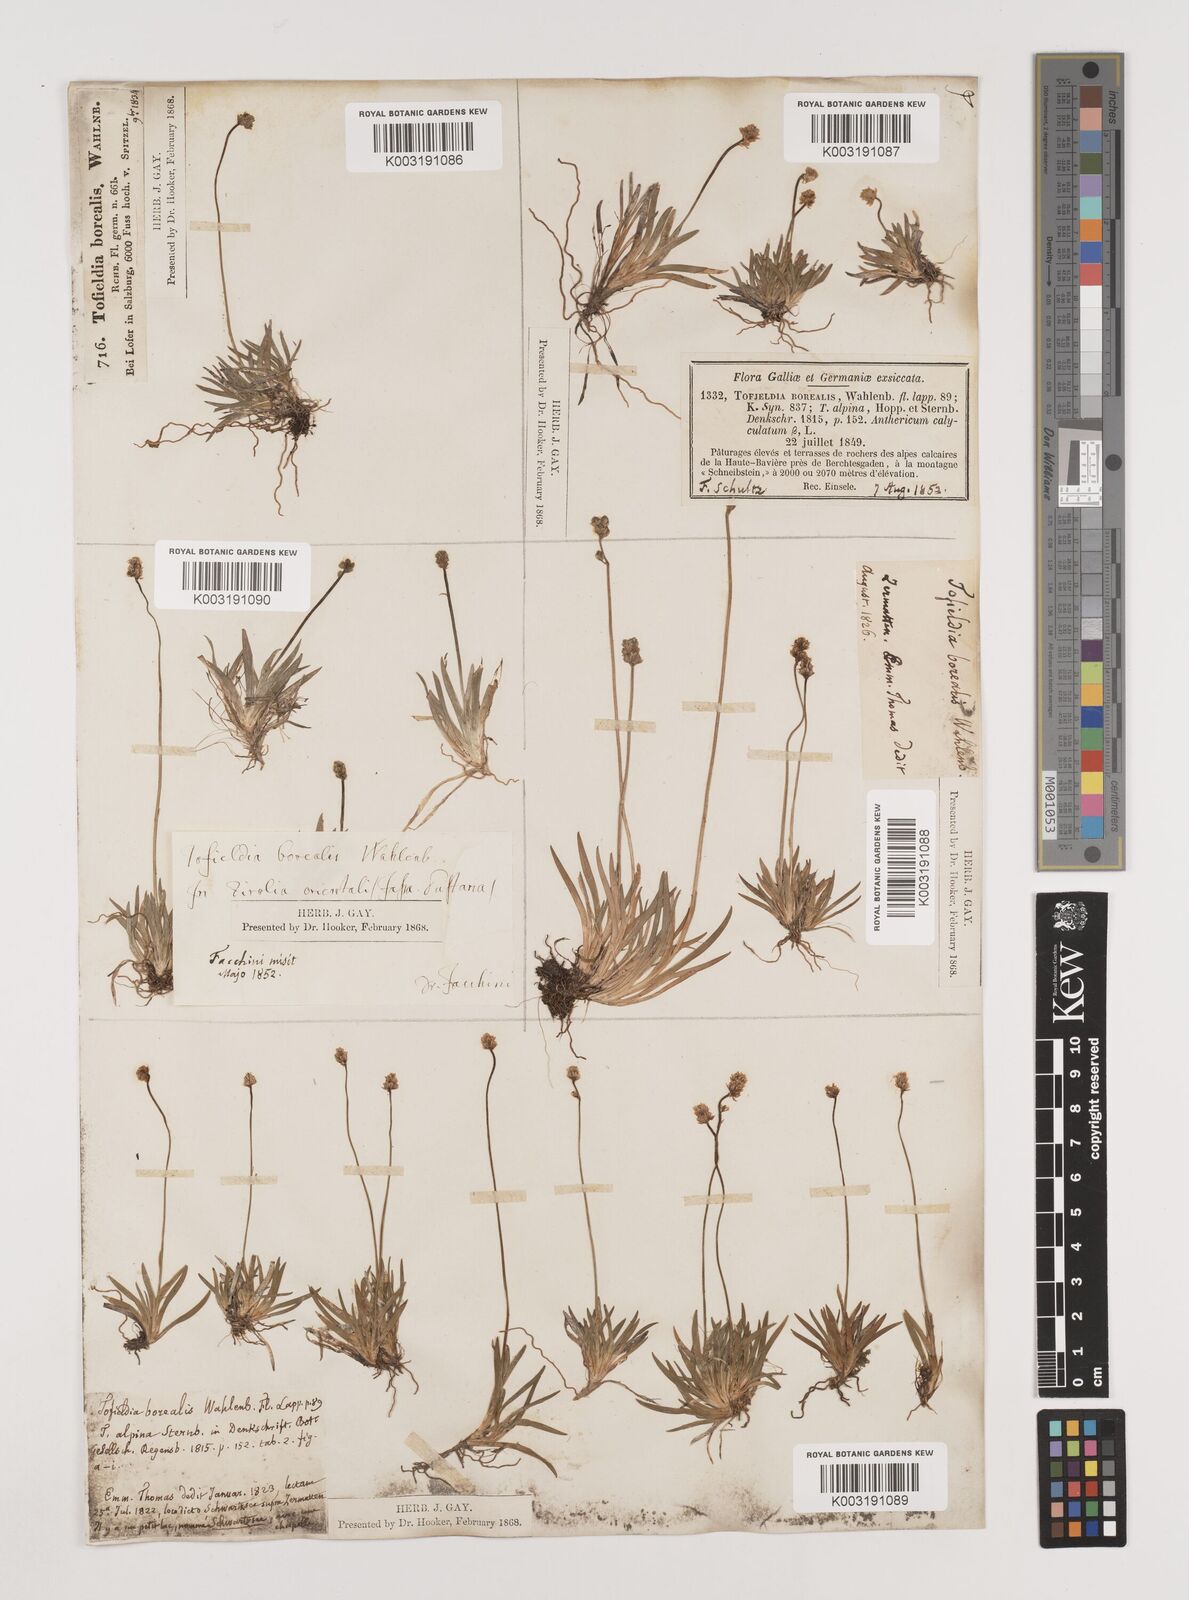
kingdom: Plantae
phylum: Tracheophyta
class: Liliopsida
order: Alismatales
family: Tofieldiaceae
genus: Tofieldia
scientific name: Tofieldia pusilla
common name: Scottish false asphodel
